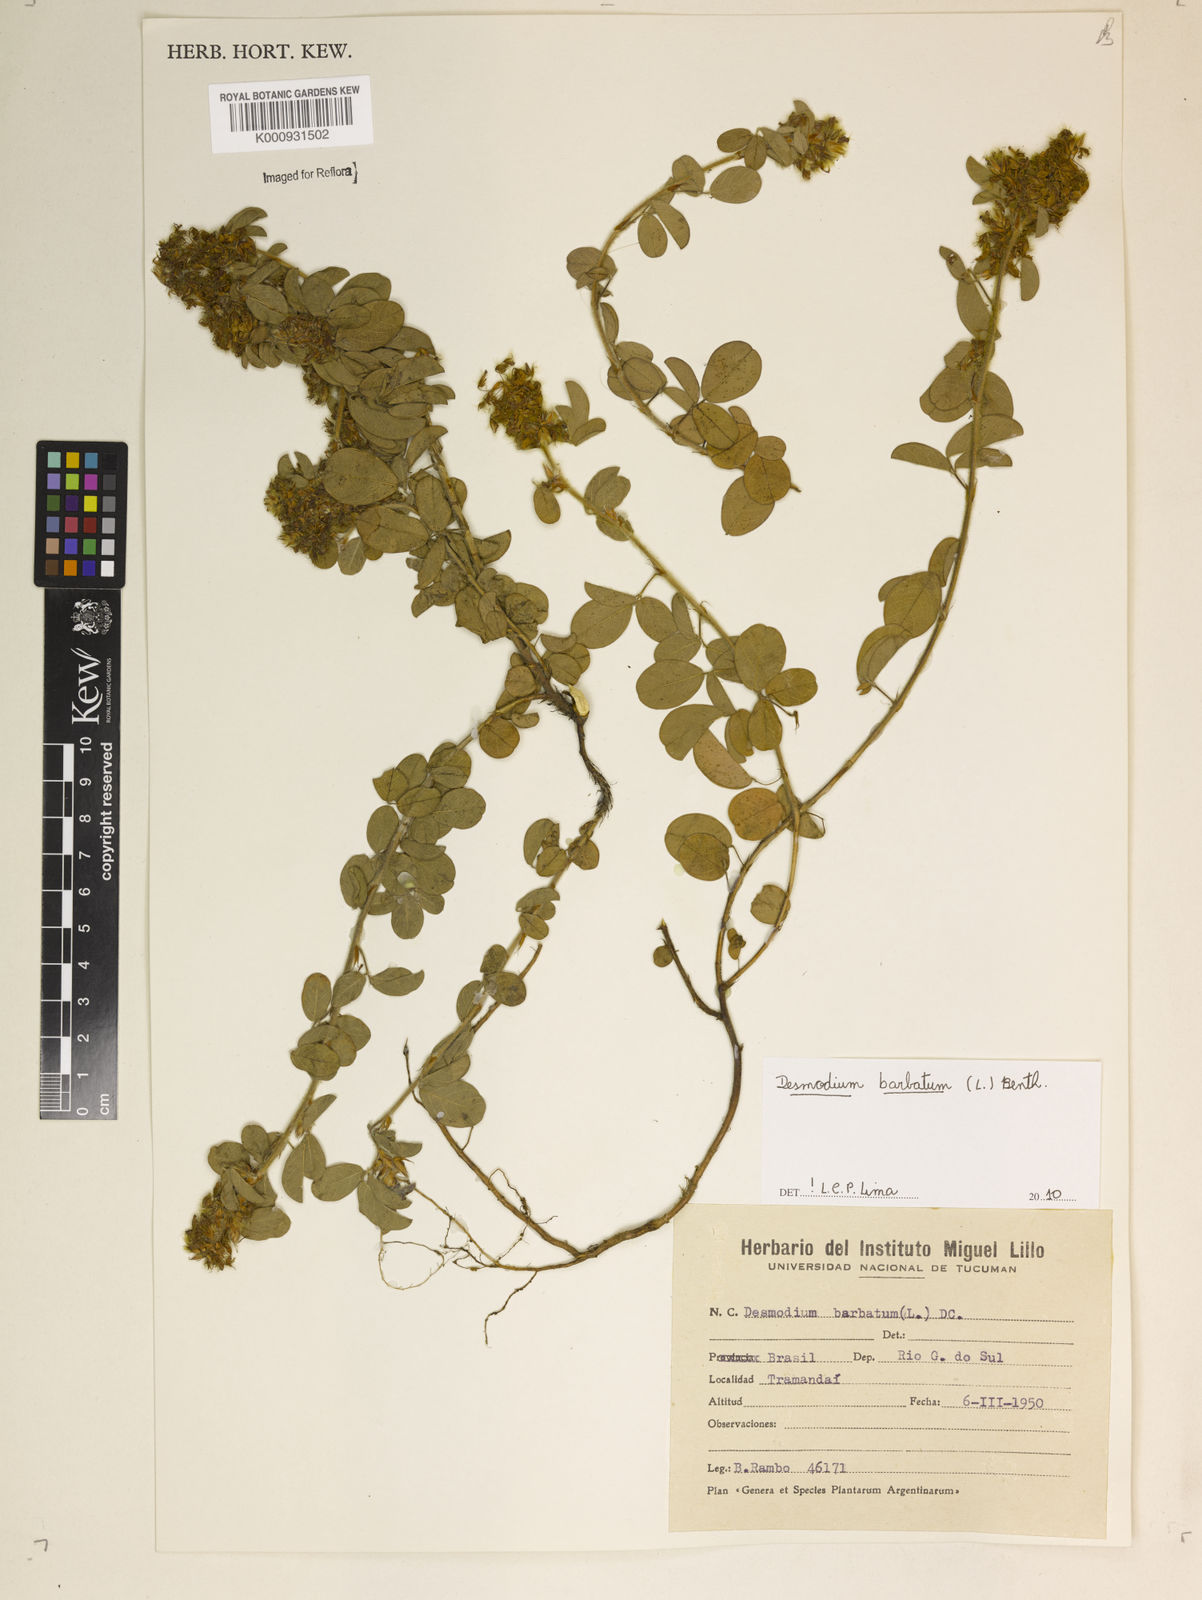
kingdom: Plantae
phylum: Tracheophyta
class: Magnoliopsida
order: Fabales
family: Fabaceae
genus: Grona
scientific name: Grona barbata
